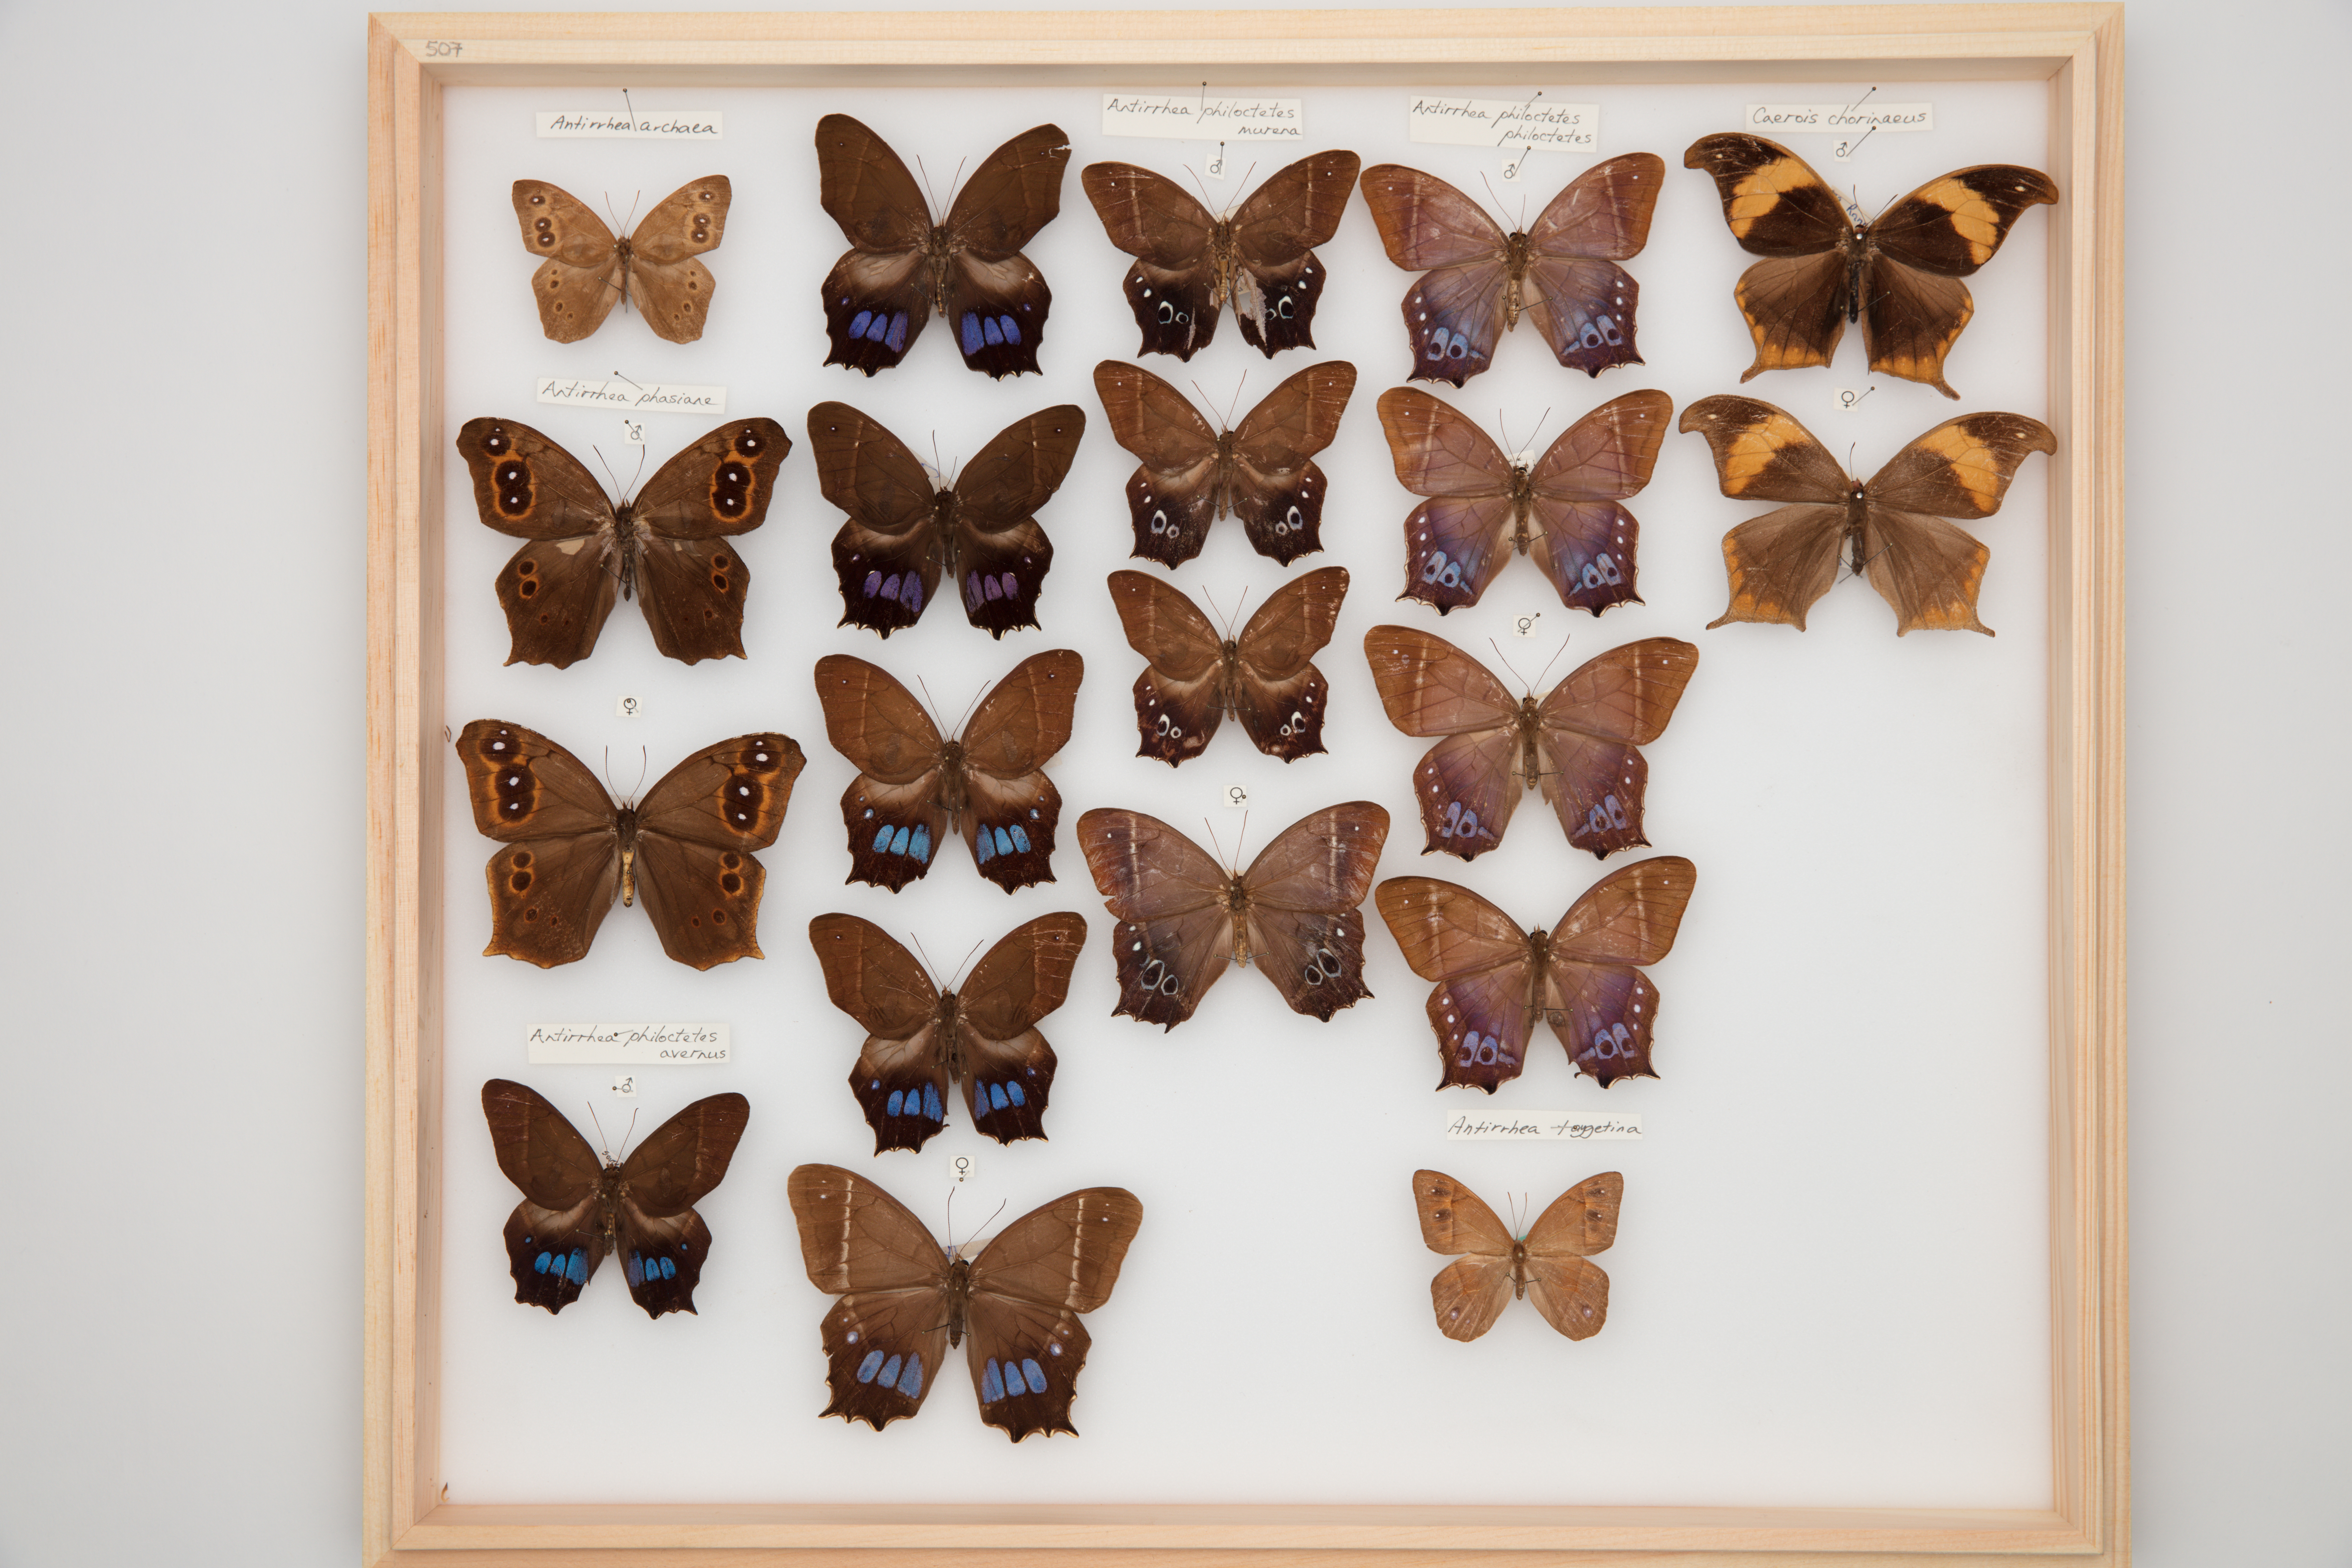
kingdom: Animalia
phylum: Arthropoda
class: Insecta
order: Lepidoptera
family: Nymphalidae
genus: Caerois
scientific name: Caerois chorinaeus
